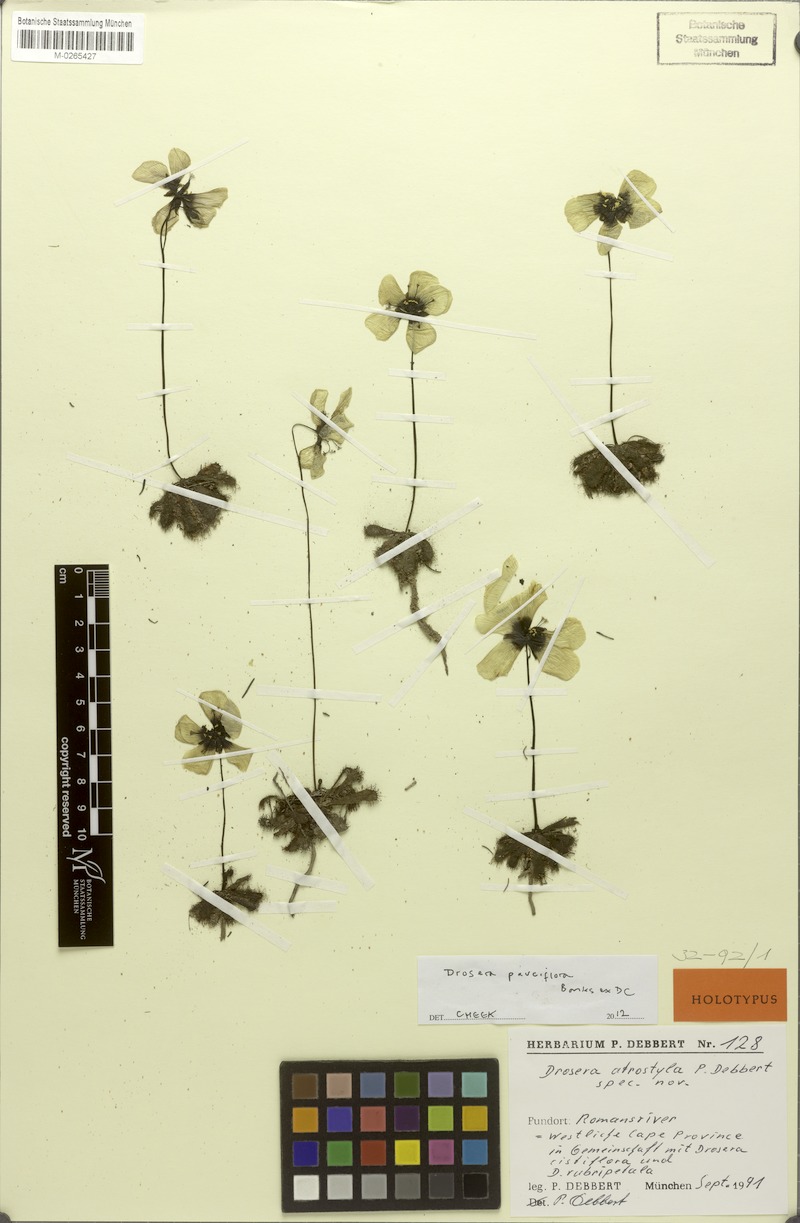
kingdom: Plantae
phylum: Tracheophyta
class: Magnoliopsida
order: Caryophyllales
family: Droseraceae
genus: Drosera
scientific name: Drosera pauciflora
